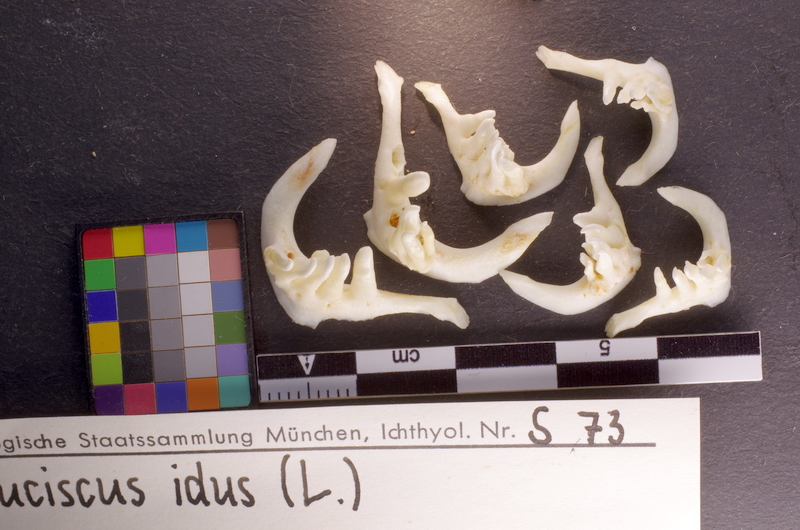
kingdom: Animalia
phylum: Chordata
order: Cypriniformes
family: Cyprinidae
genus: Leuciscus
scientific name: Leuciscus idus
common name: Ide
